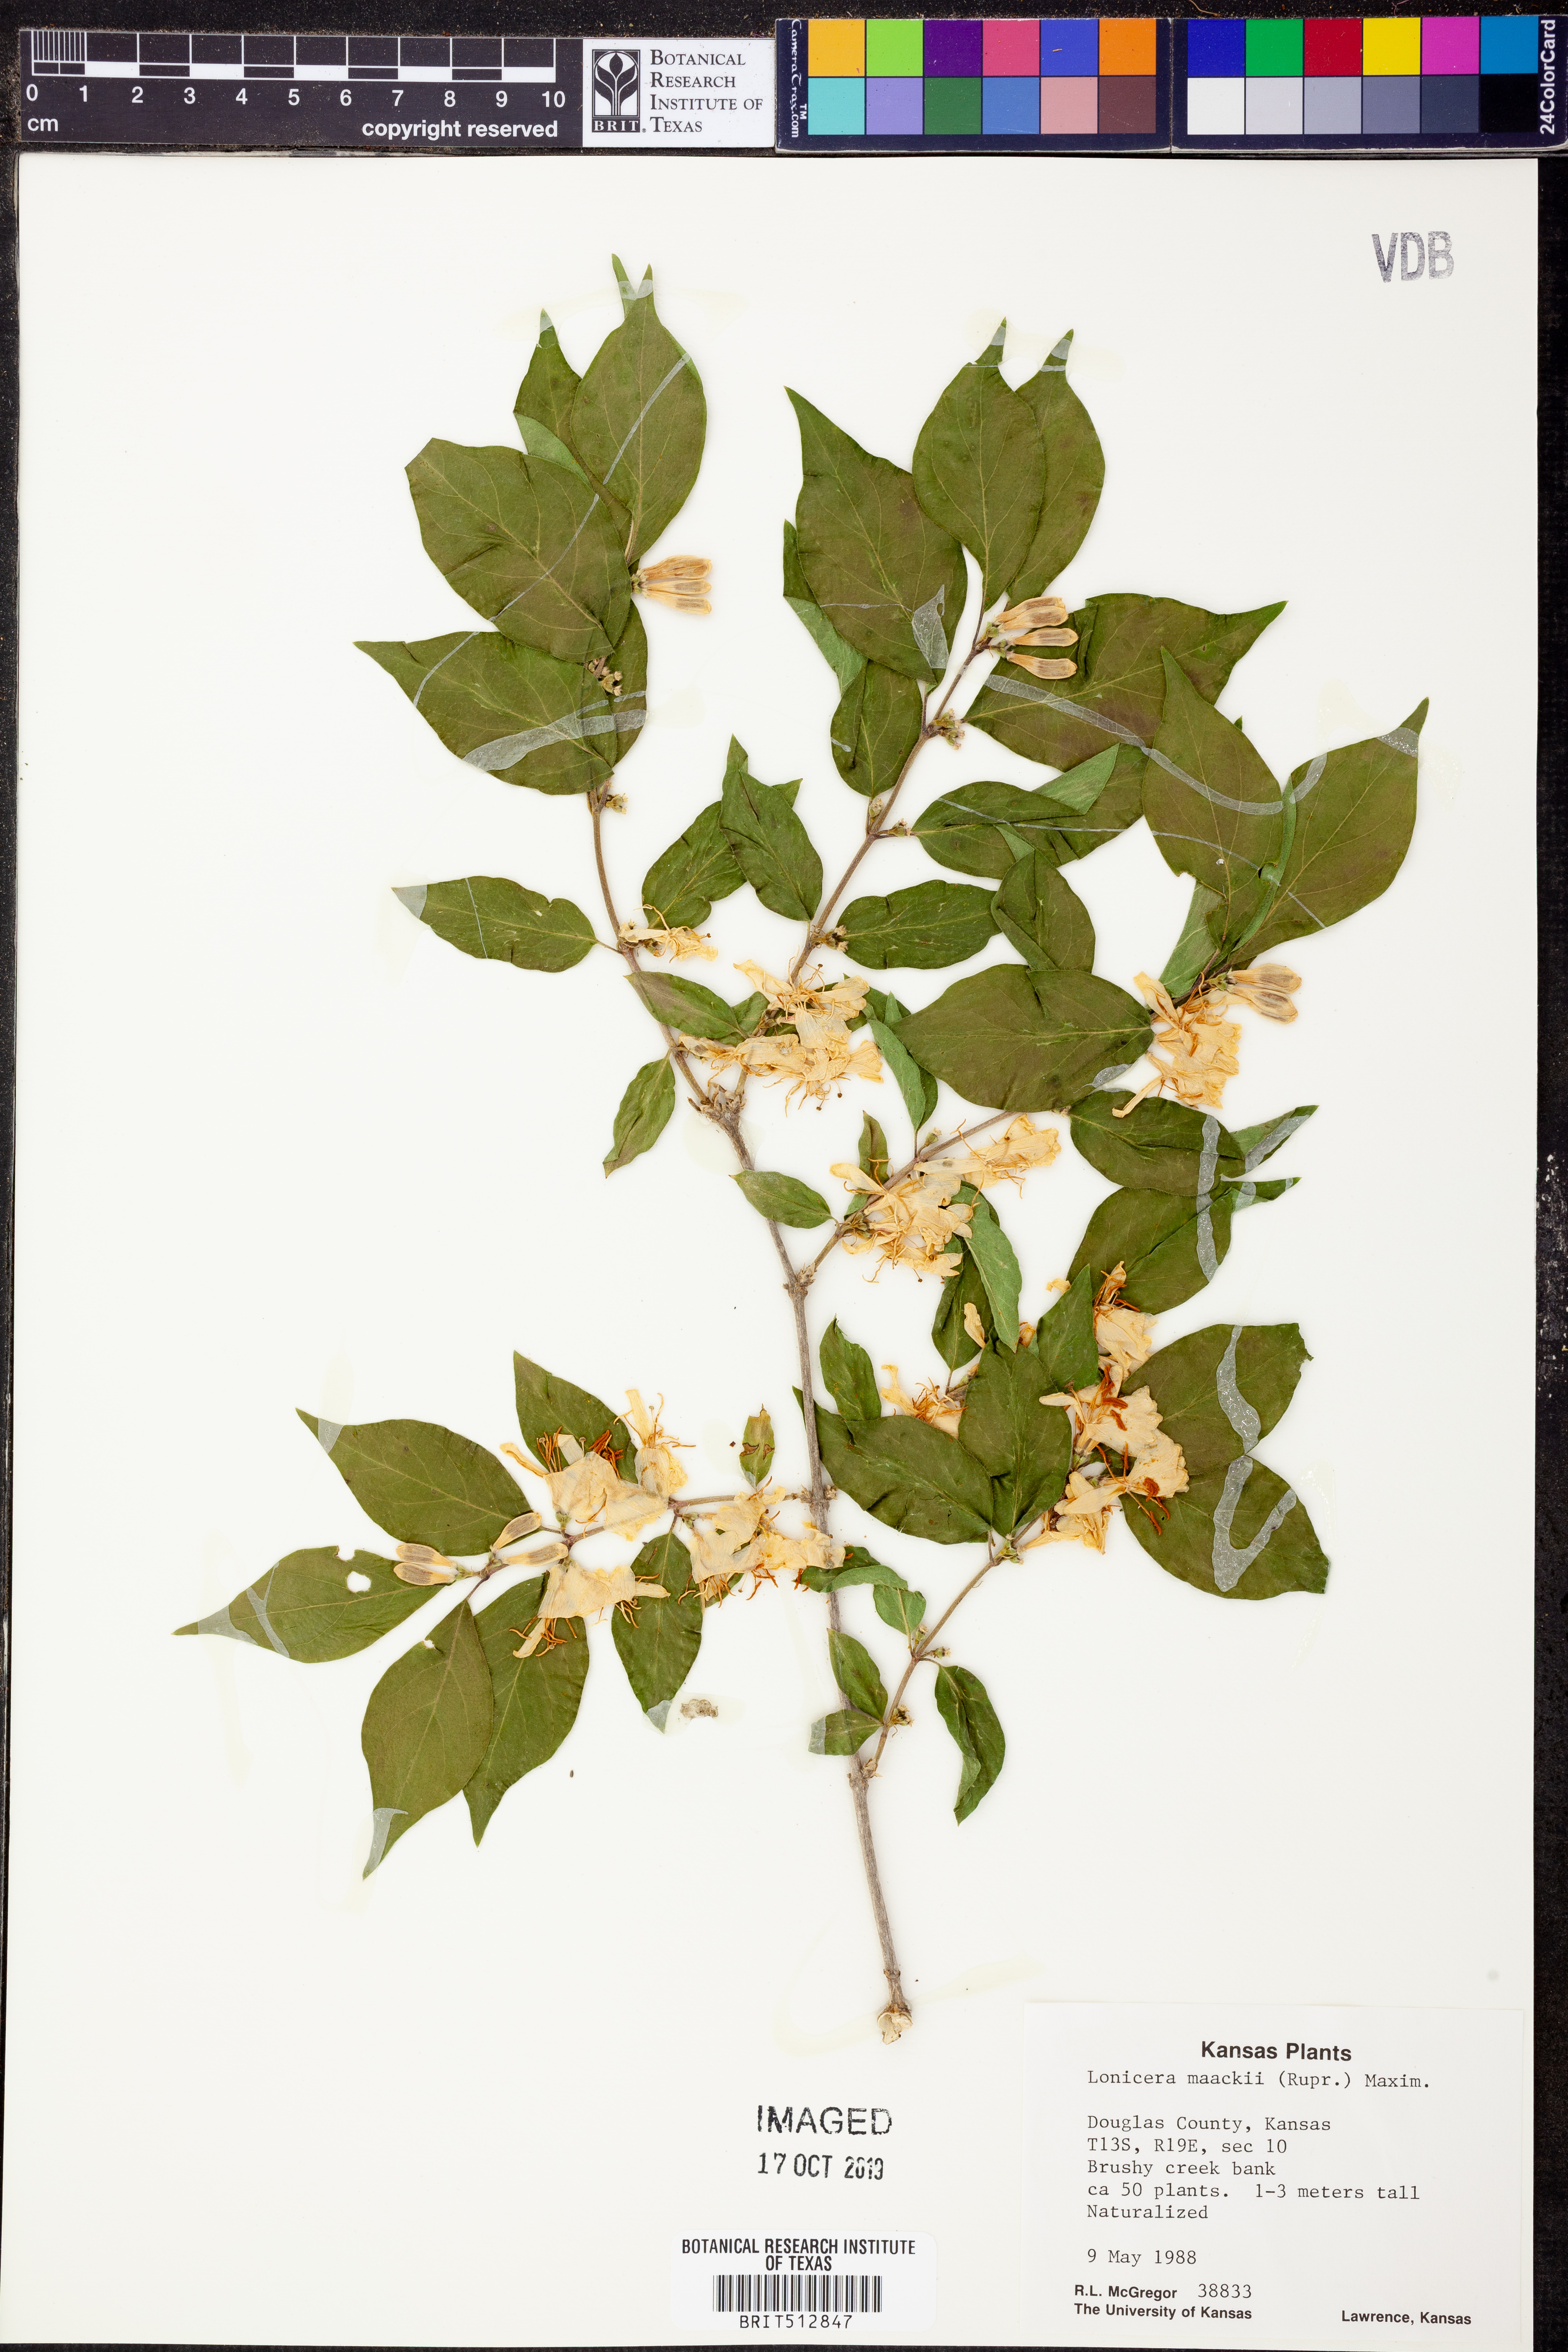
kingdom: Plantae
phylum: Tracheophyta
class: Magnoliopsida
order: Dipsacales
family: Caprifoliaceae
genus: Lonicera
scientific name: Lonicera maackii
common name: Amur honeysuckle
